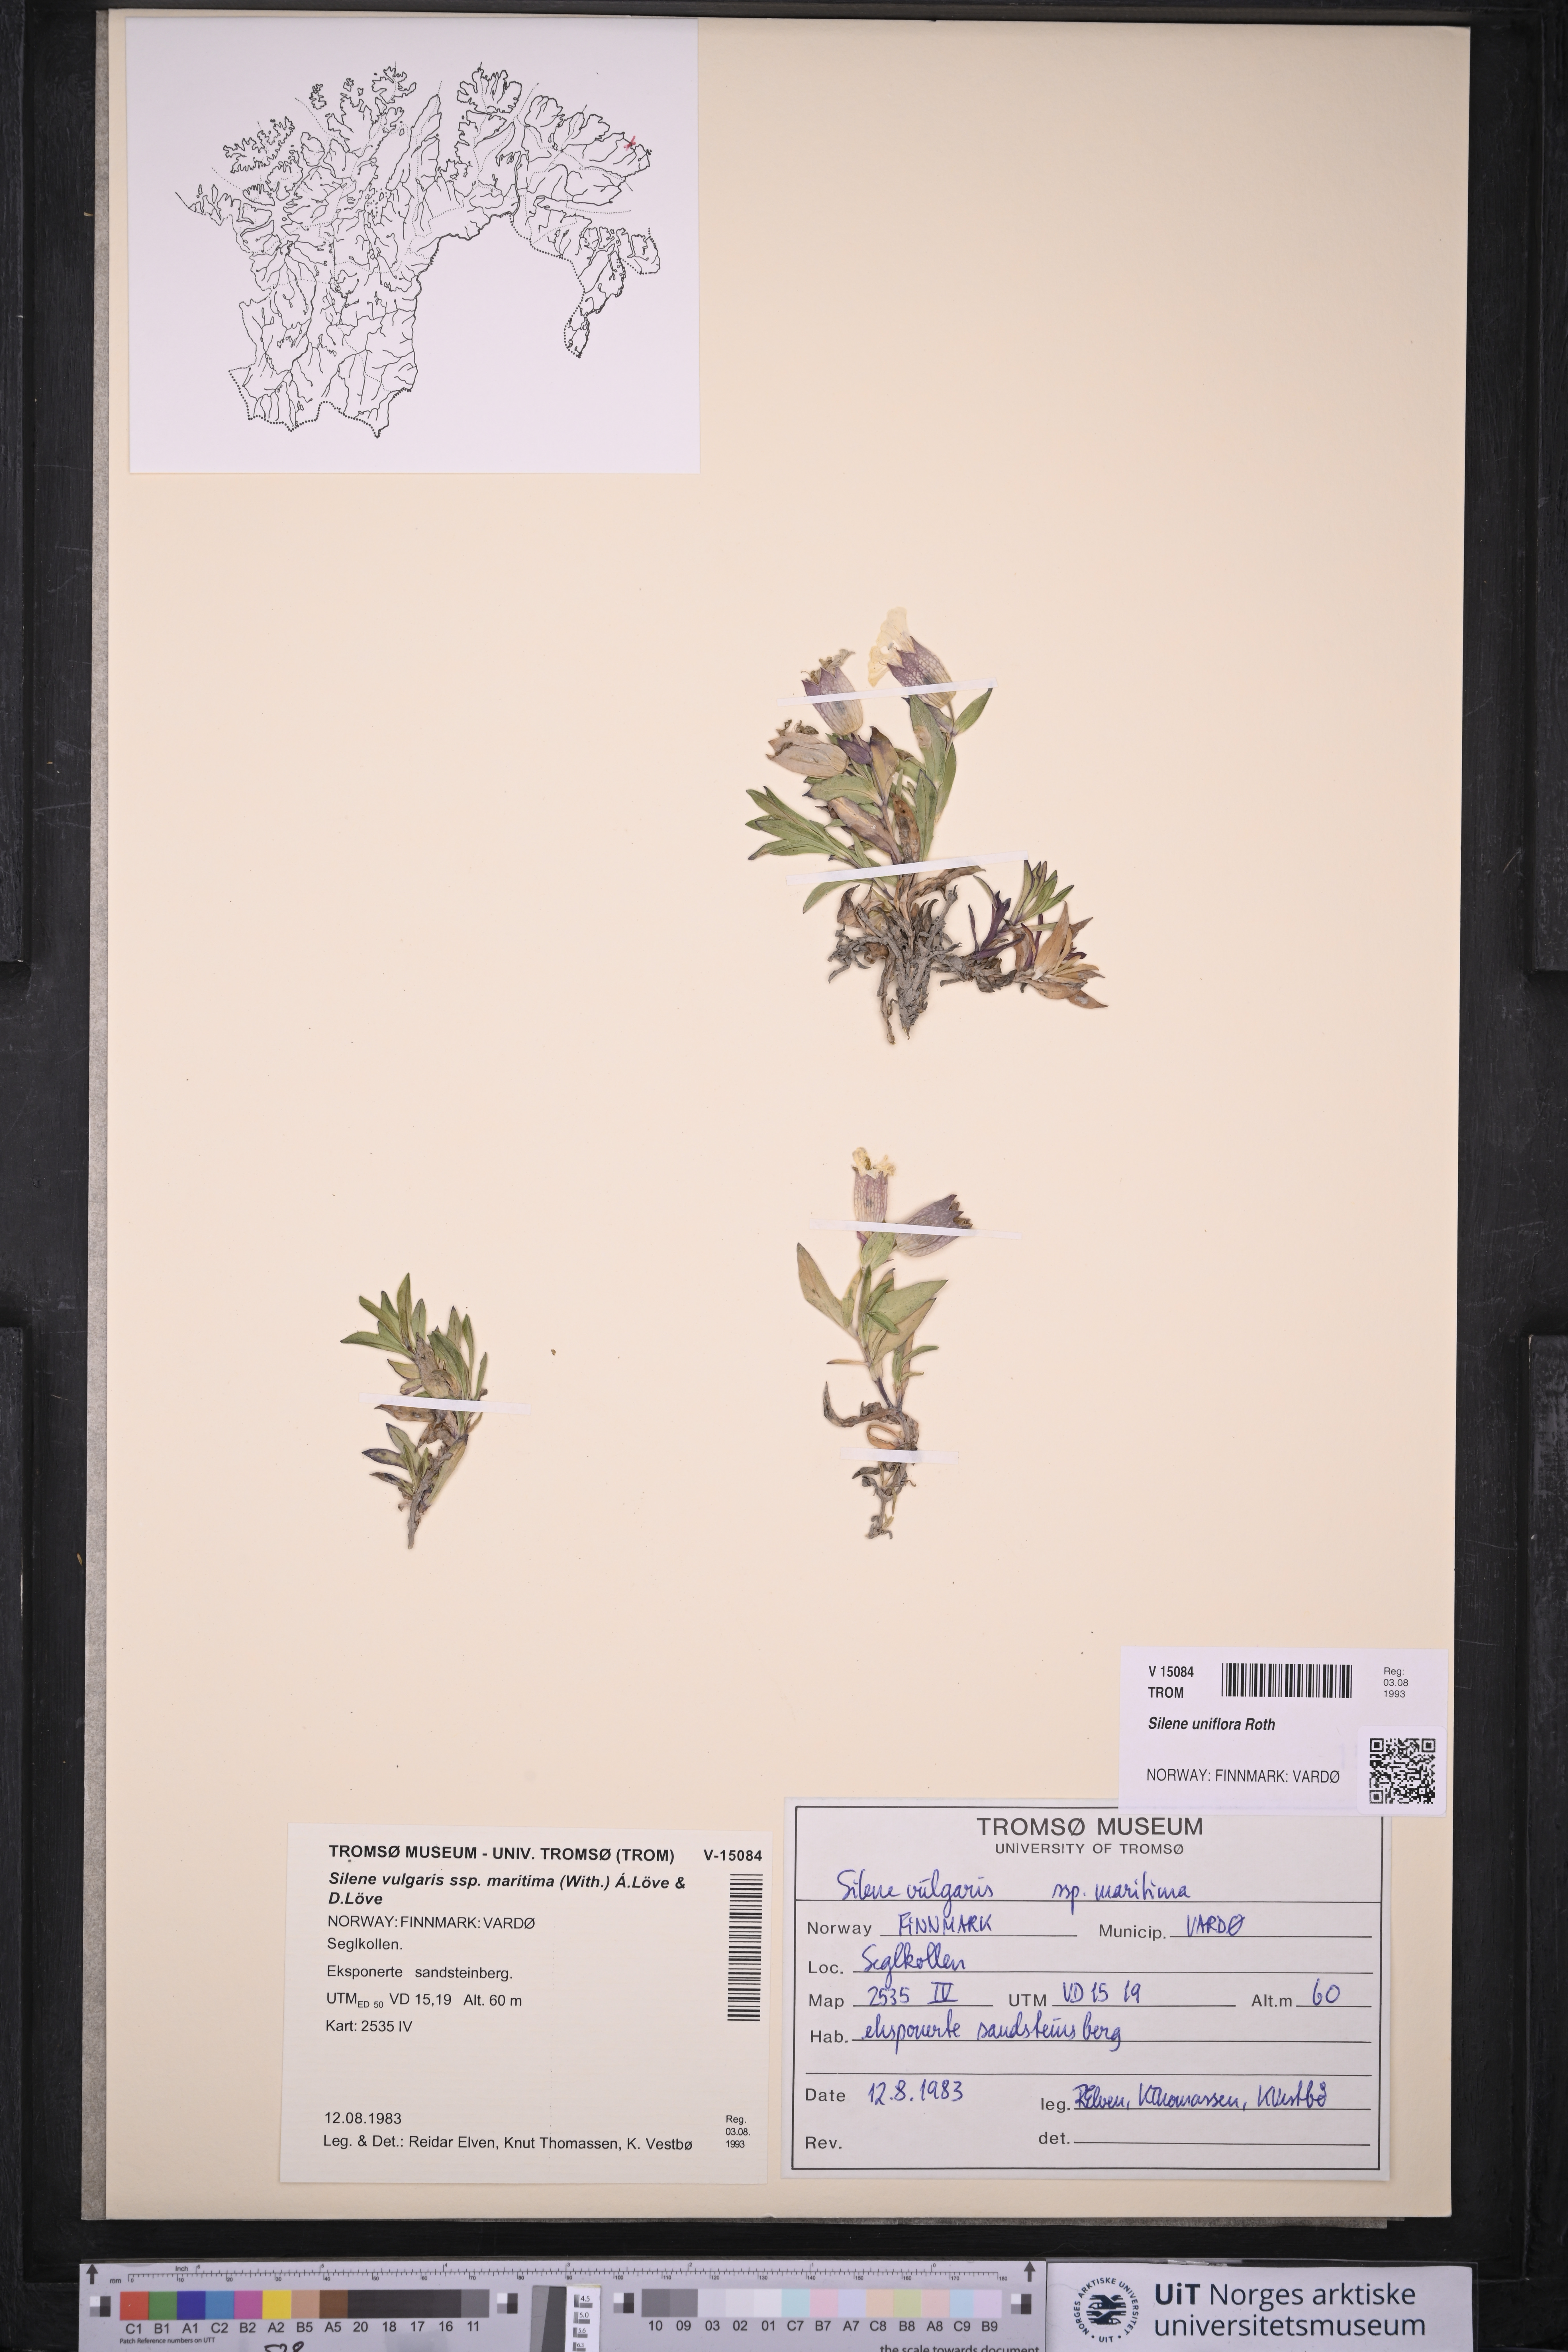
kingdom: Plantae
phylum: Tracheophyta
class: Magnoliopsida
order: Caryophyllales
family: Caryophyllaceae
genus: Silene
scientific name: Silene uniflora
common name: Sea campion
